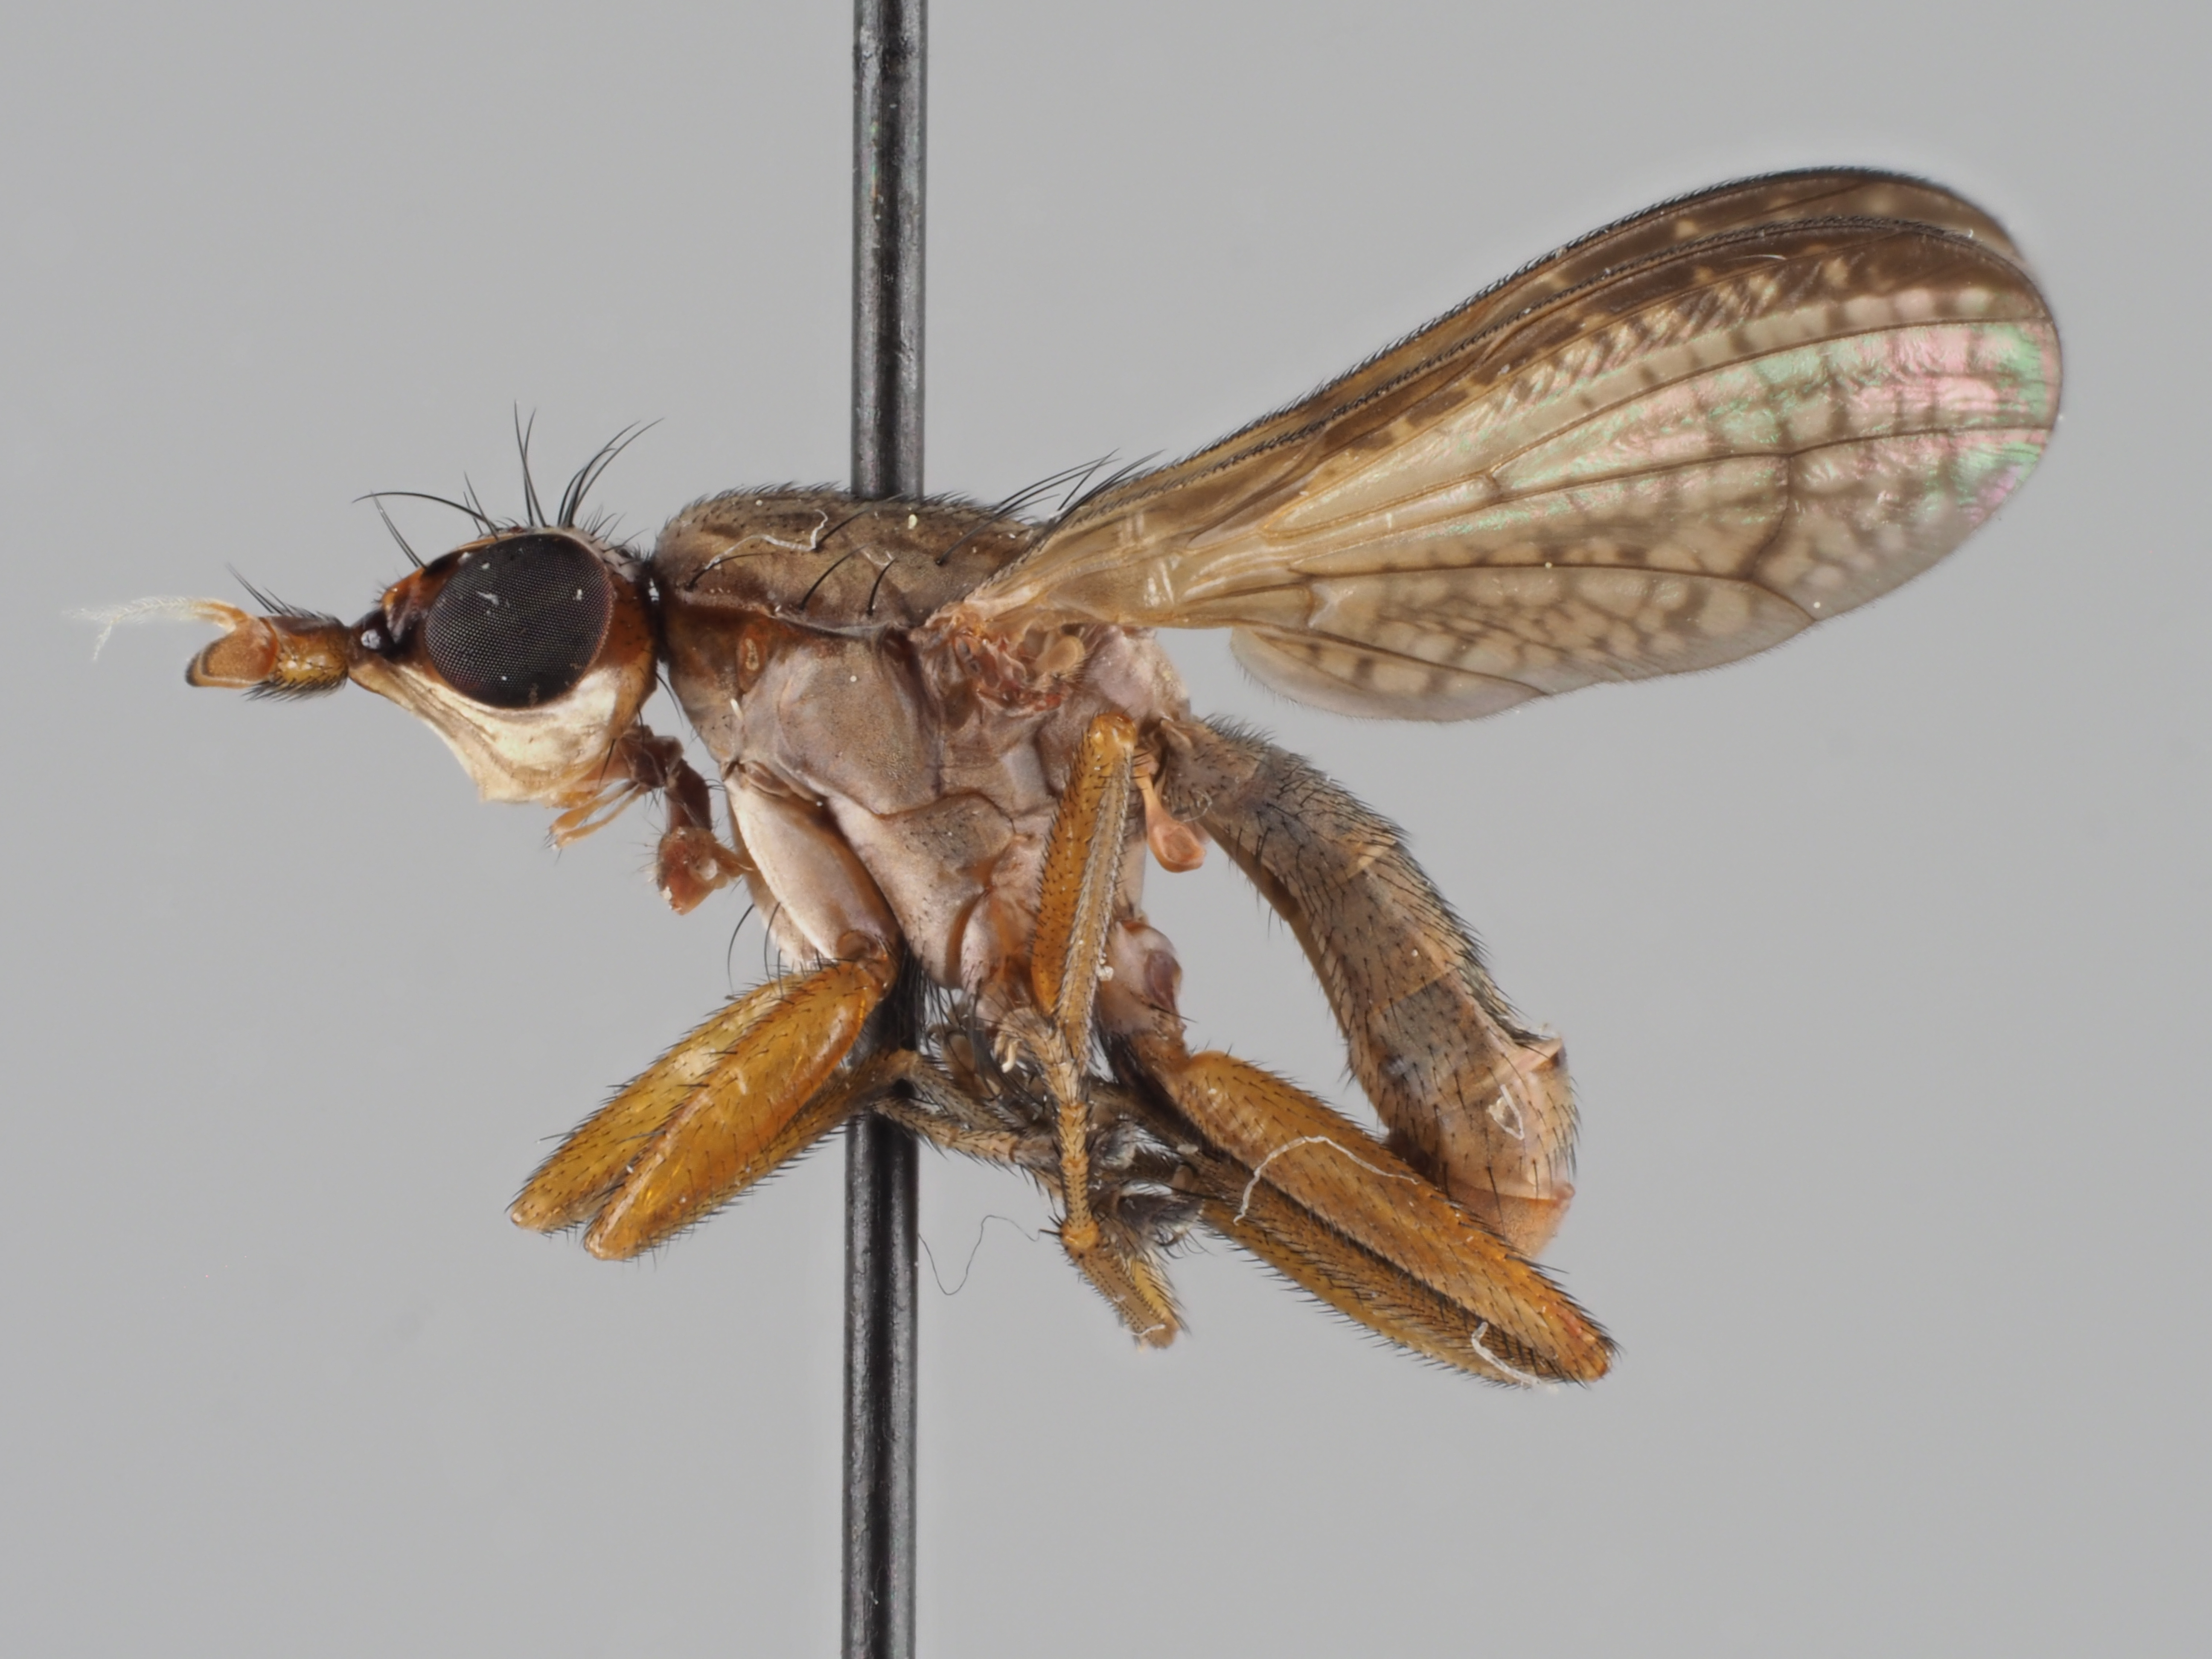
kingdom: Animalia
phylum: Arthropoda
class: Insecta
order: Diptera
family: Sciomyzidae
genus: Euthycera
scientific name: Euthycera fumigata
